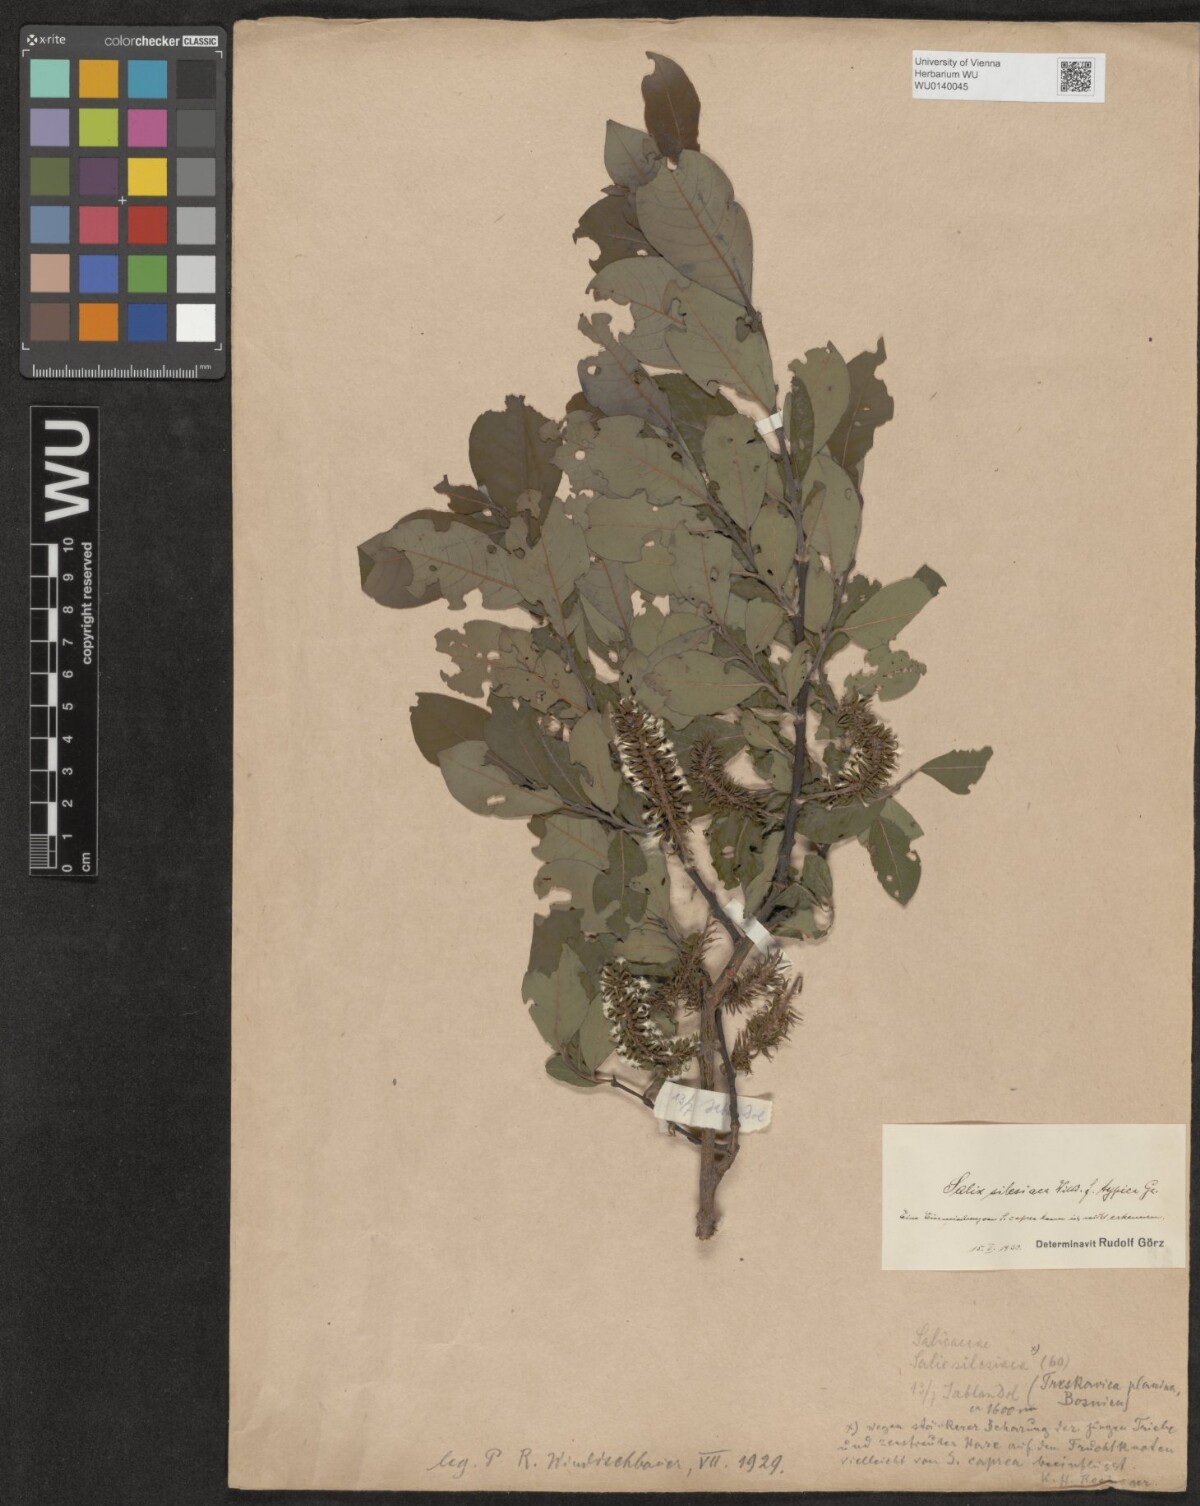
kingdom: Plantae
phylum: Tracheophyta
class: Magnoliopsida
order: Malpighiales
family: Salicaceae
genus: Salix
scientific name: Salix silesiaca
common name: Silesian willow
